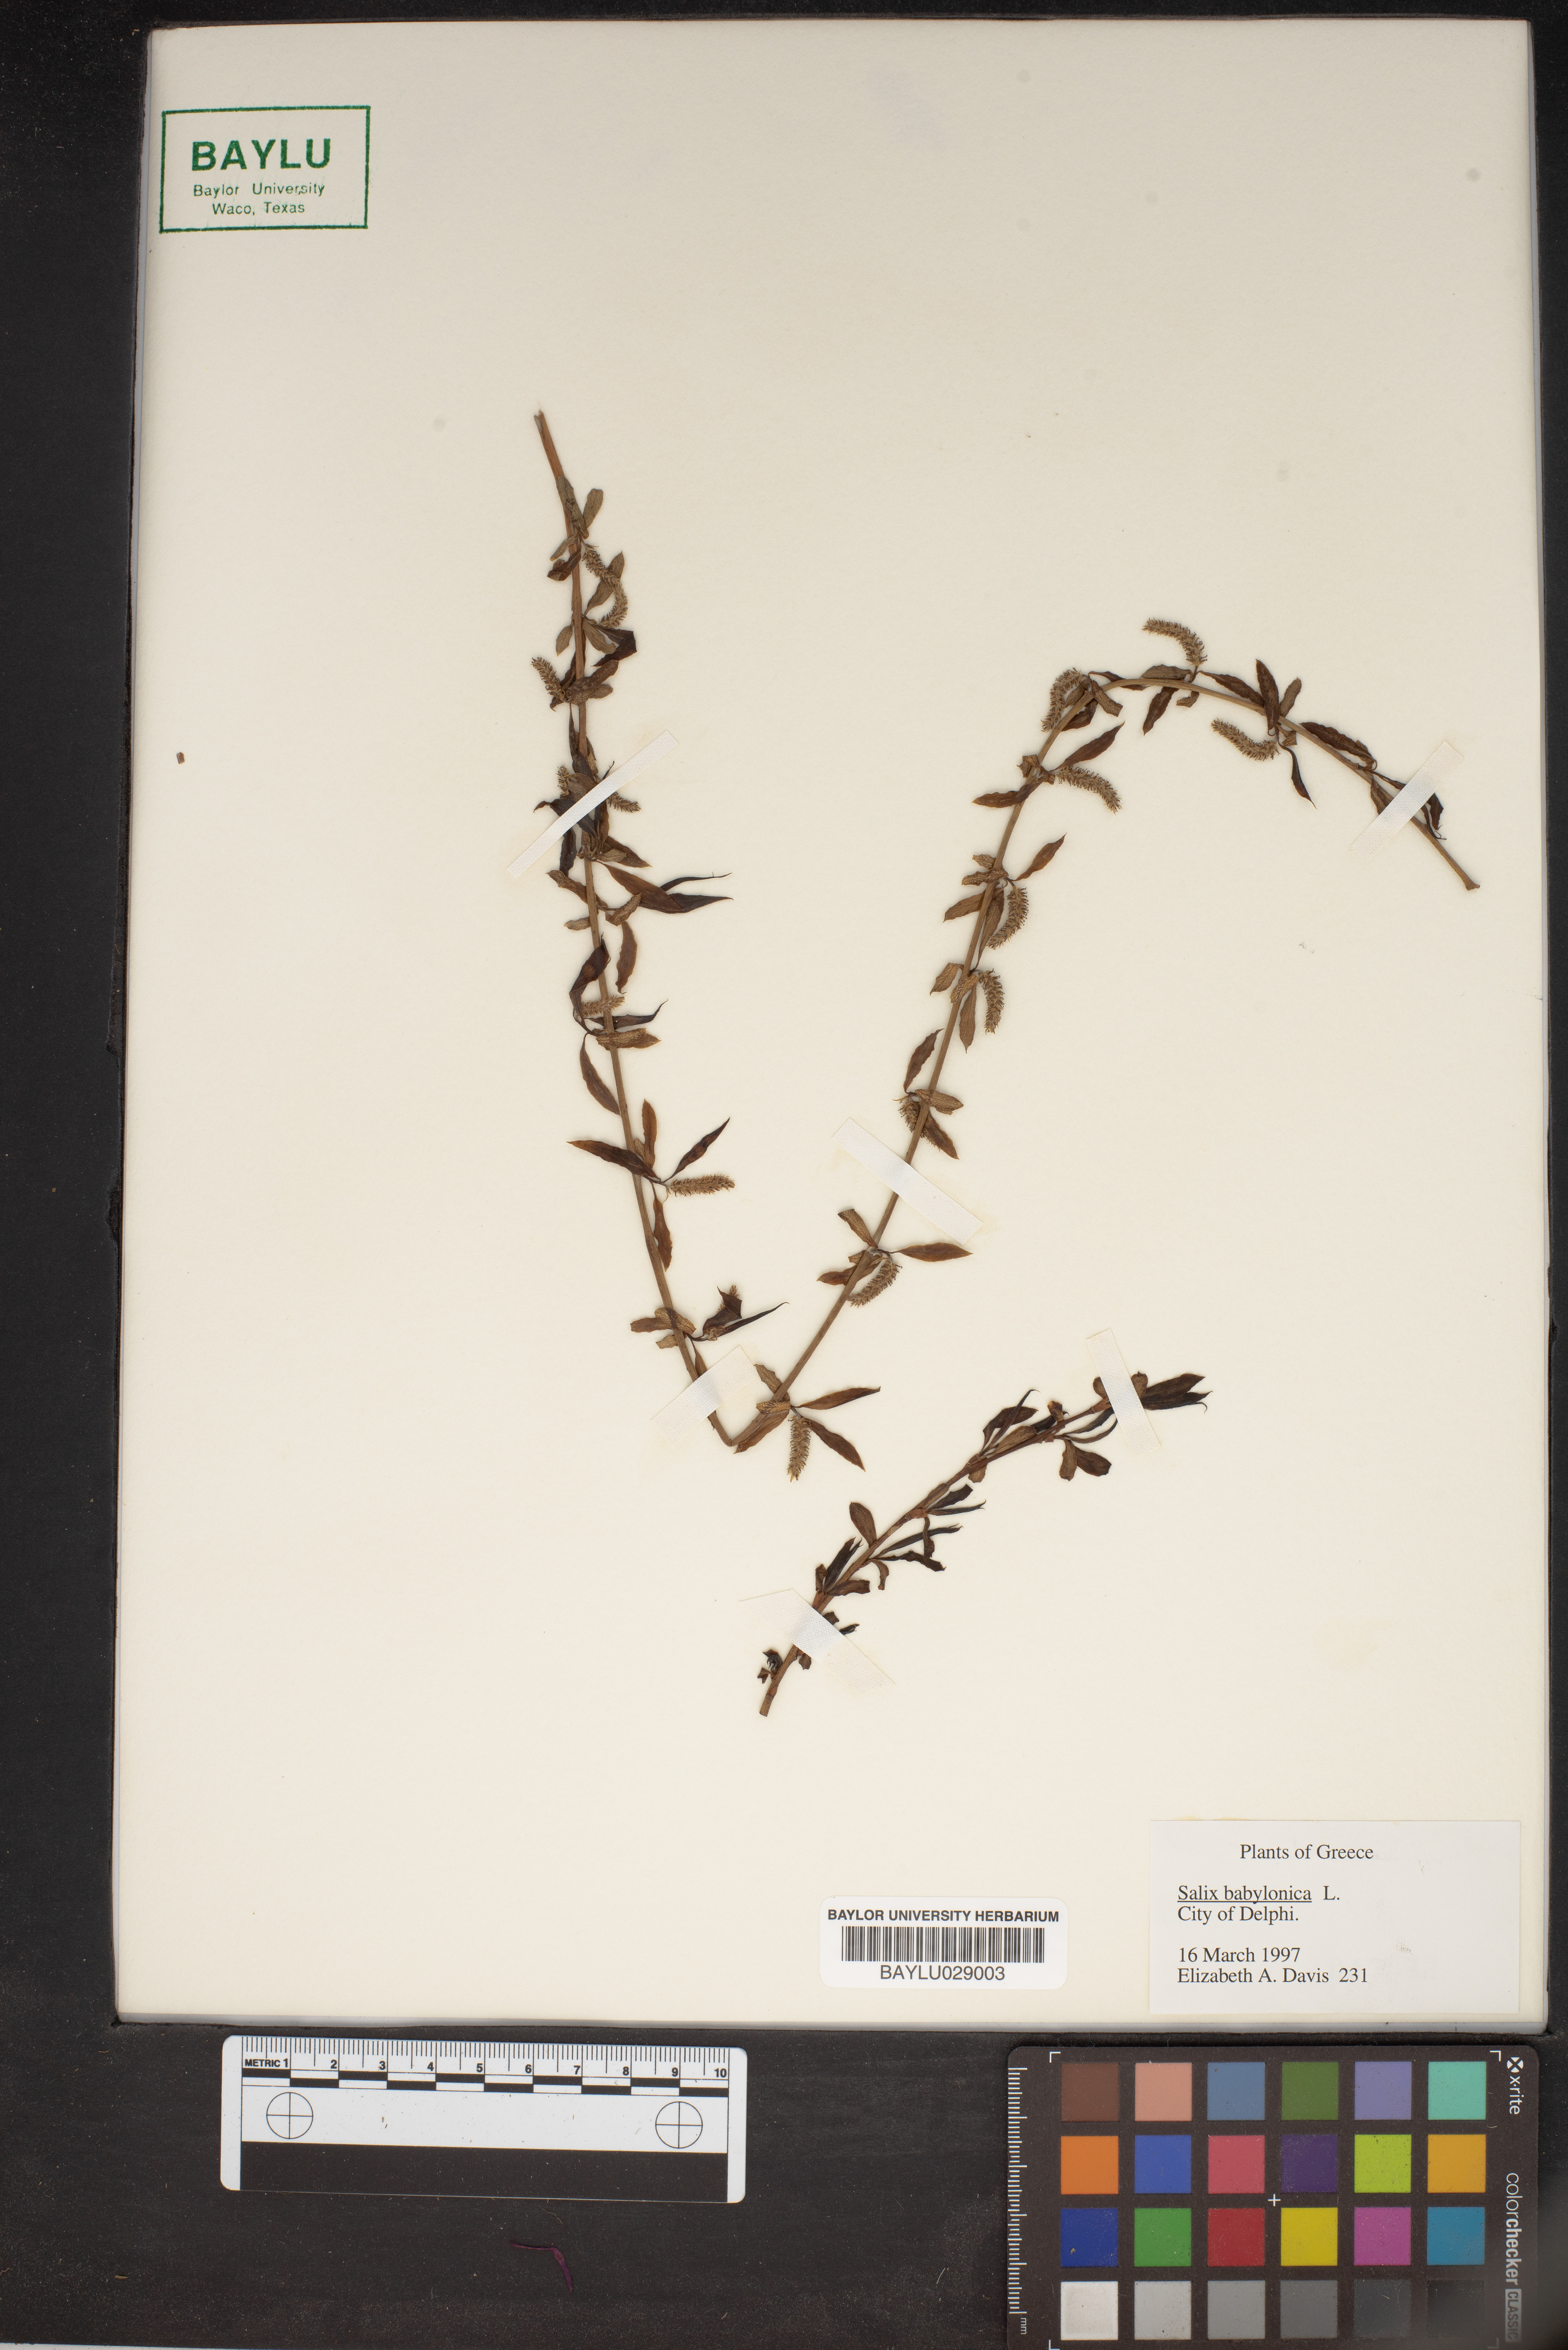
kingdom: Plantae
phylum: Tracheophyta
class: Magnoliopsida
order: Malpighiales
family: Salicaceae
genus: Salix
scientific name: Salix babylonica
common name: Weeping willow
